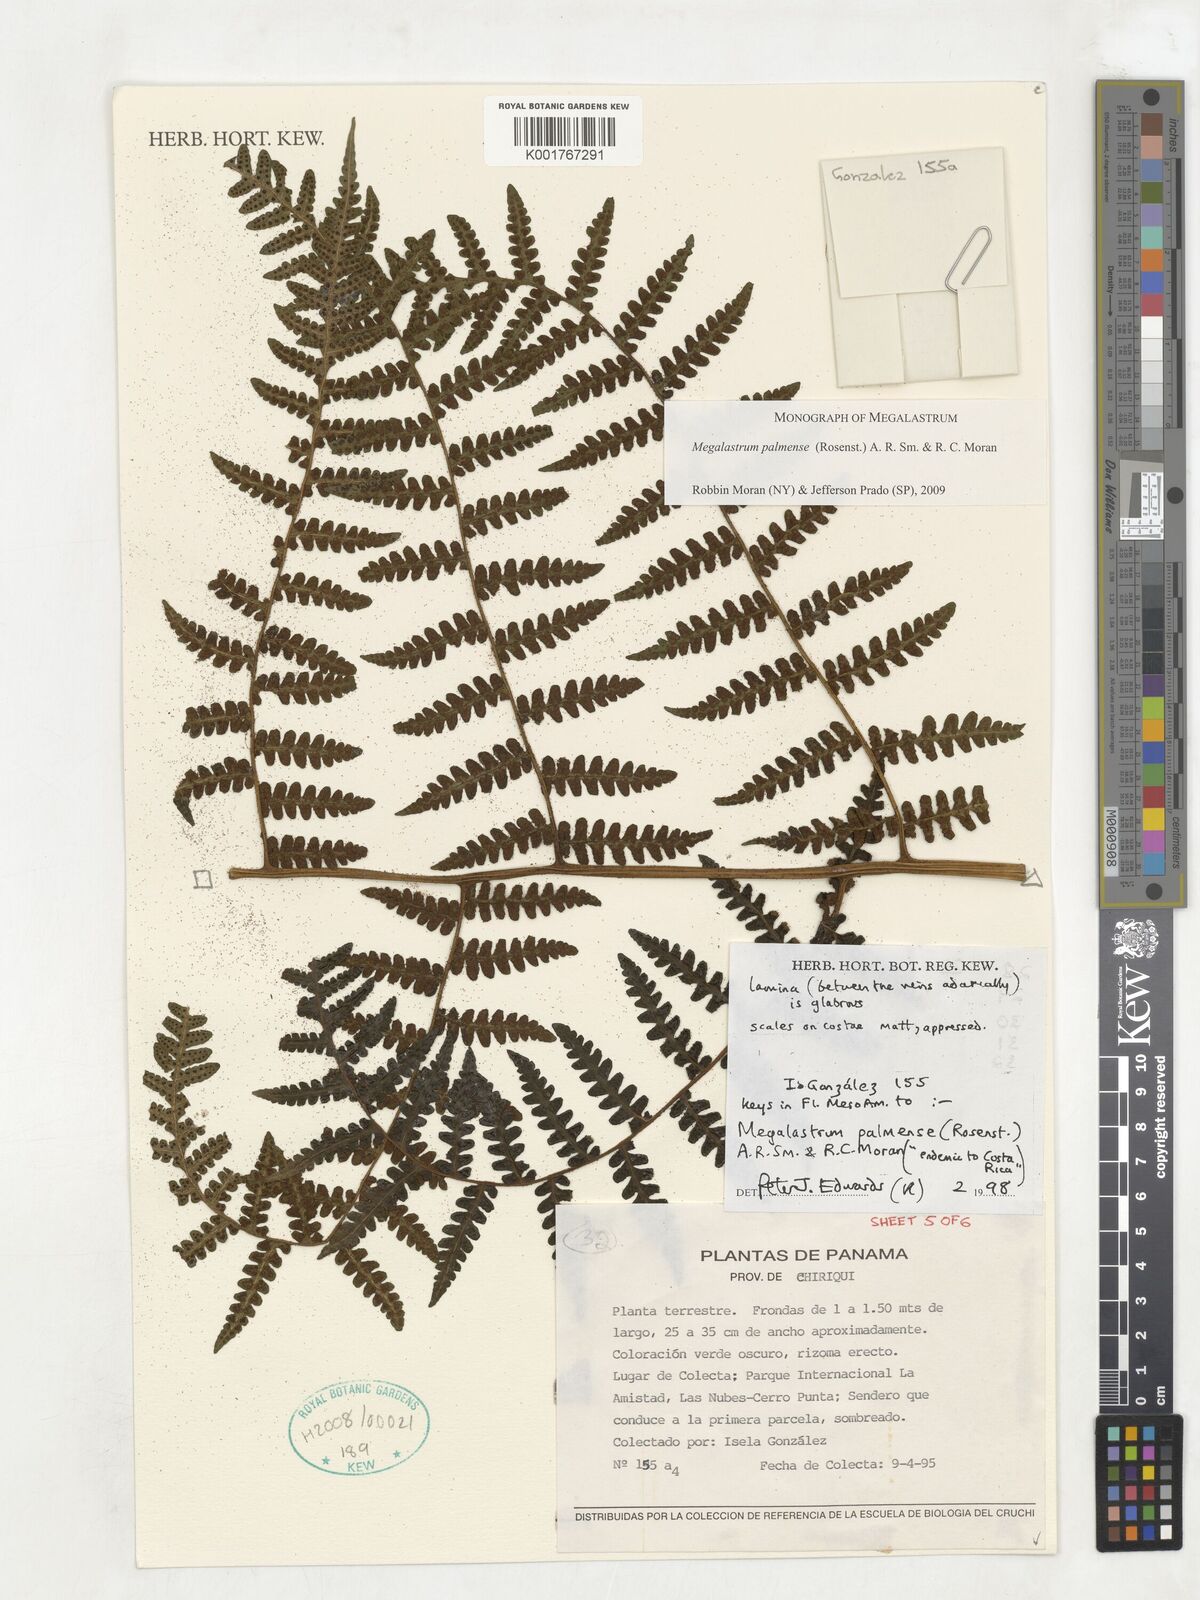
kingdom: Plantae
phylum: Tracheophyta
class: Polypodiopsida
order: Polypodiales
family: Dryopteridaceae
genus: Megalastrum
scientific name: Megalastrum palmense
